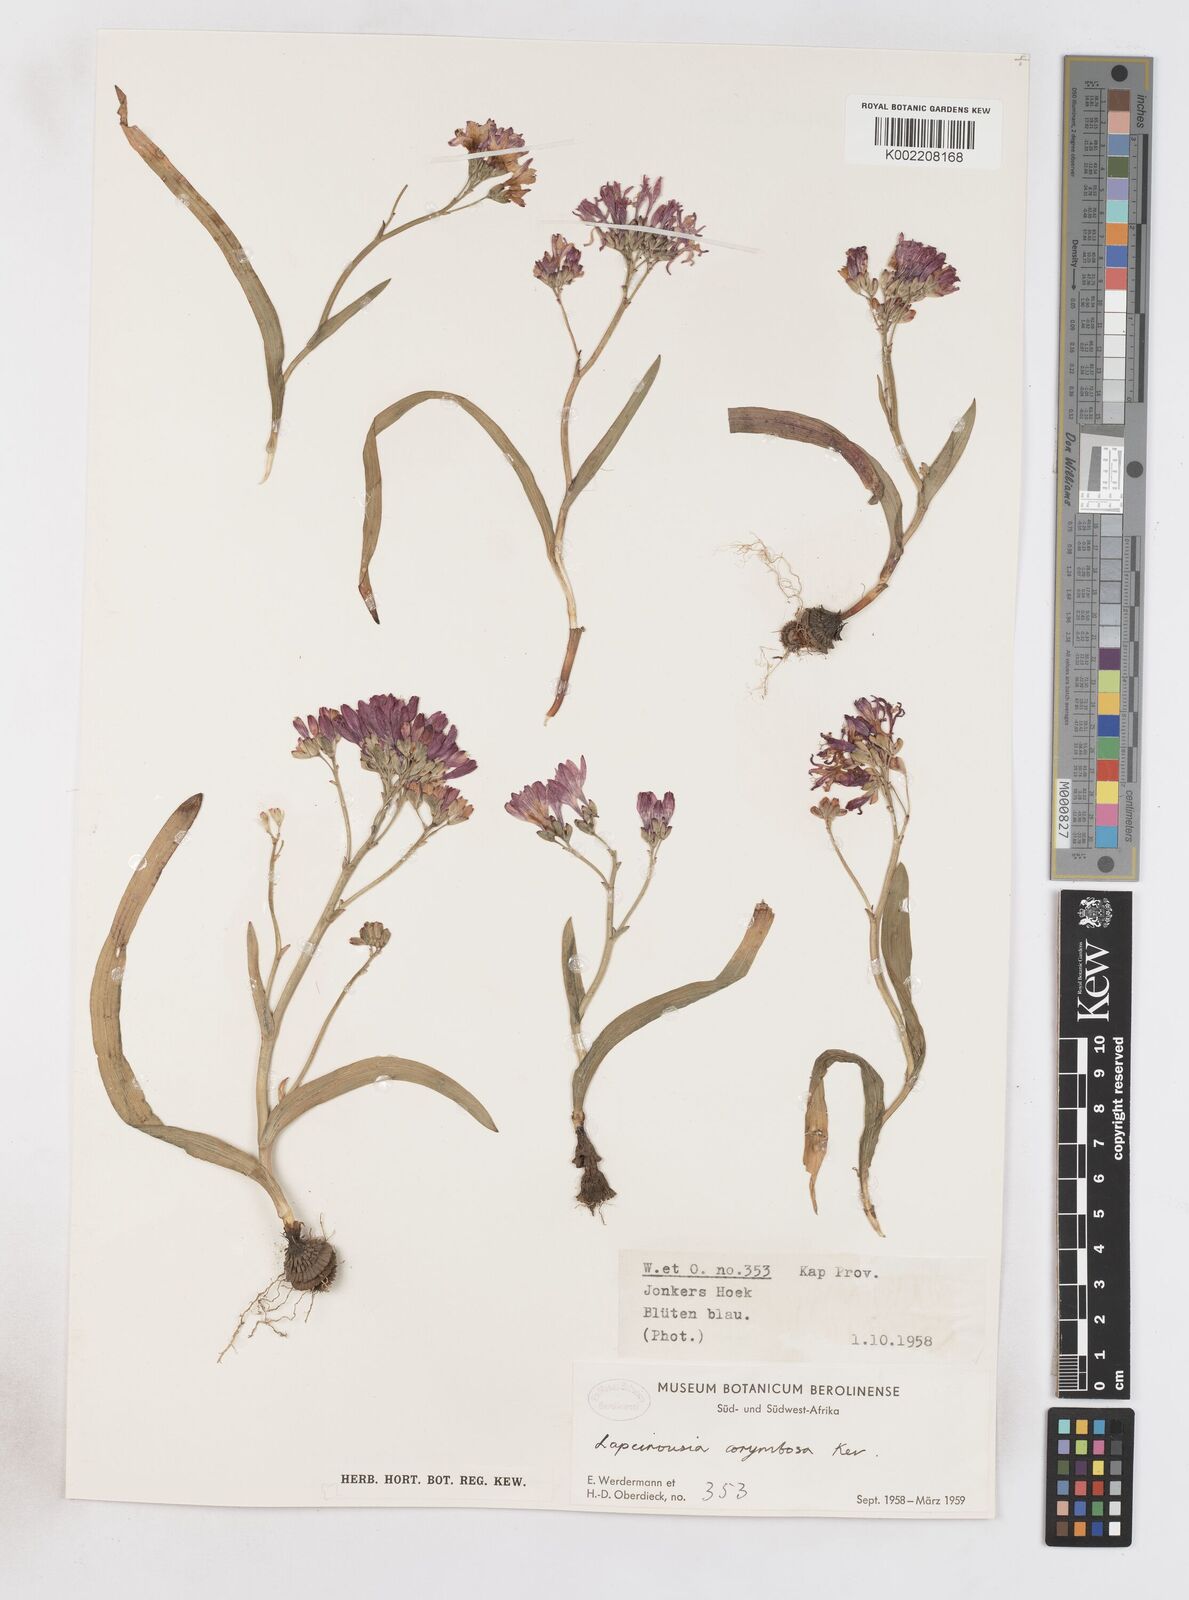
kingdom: Plantae
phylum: Tracheophyta
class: Liliopsida
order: Asparagales
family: Iridaceae
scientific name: Iridaceae
